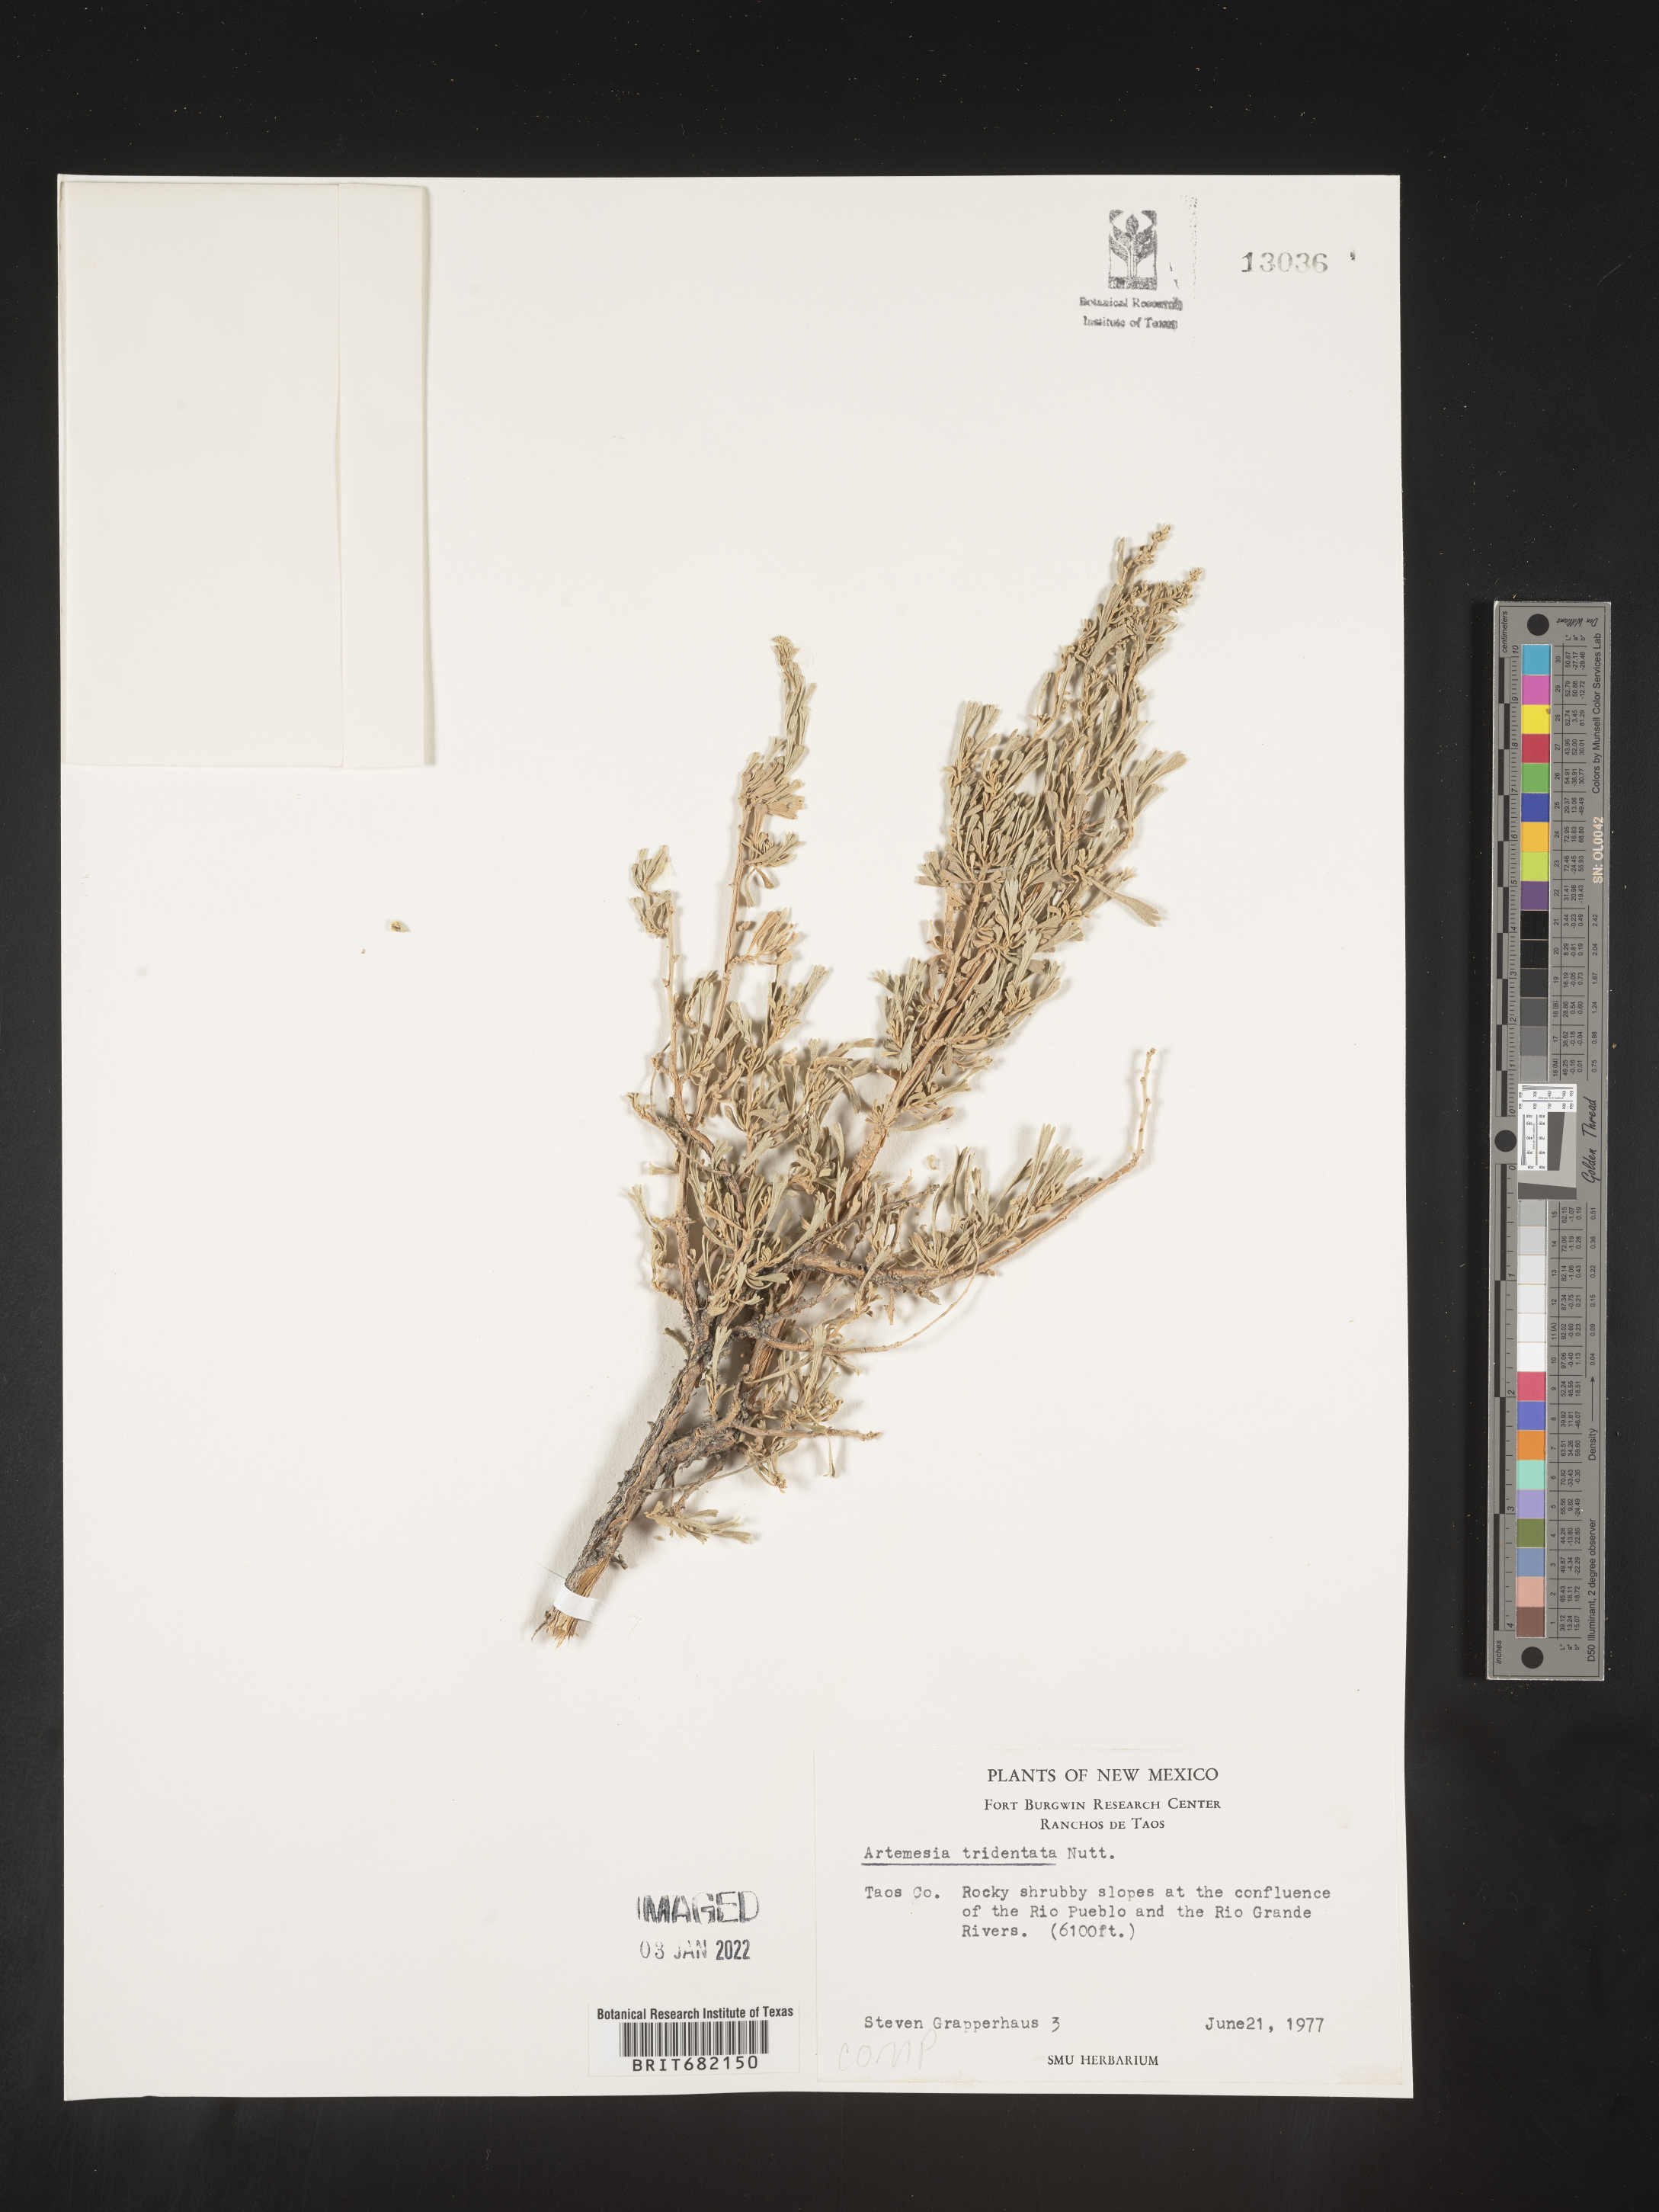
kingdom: Plantae
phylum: Tracheophyta
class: Magnoliopsida
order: Asterales
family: Asteraceae
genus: Artemisia
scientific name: Artemisia tridentata
